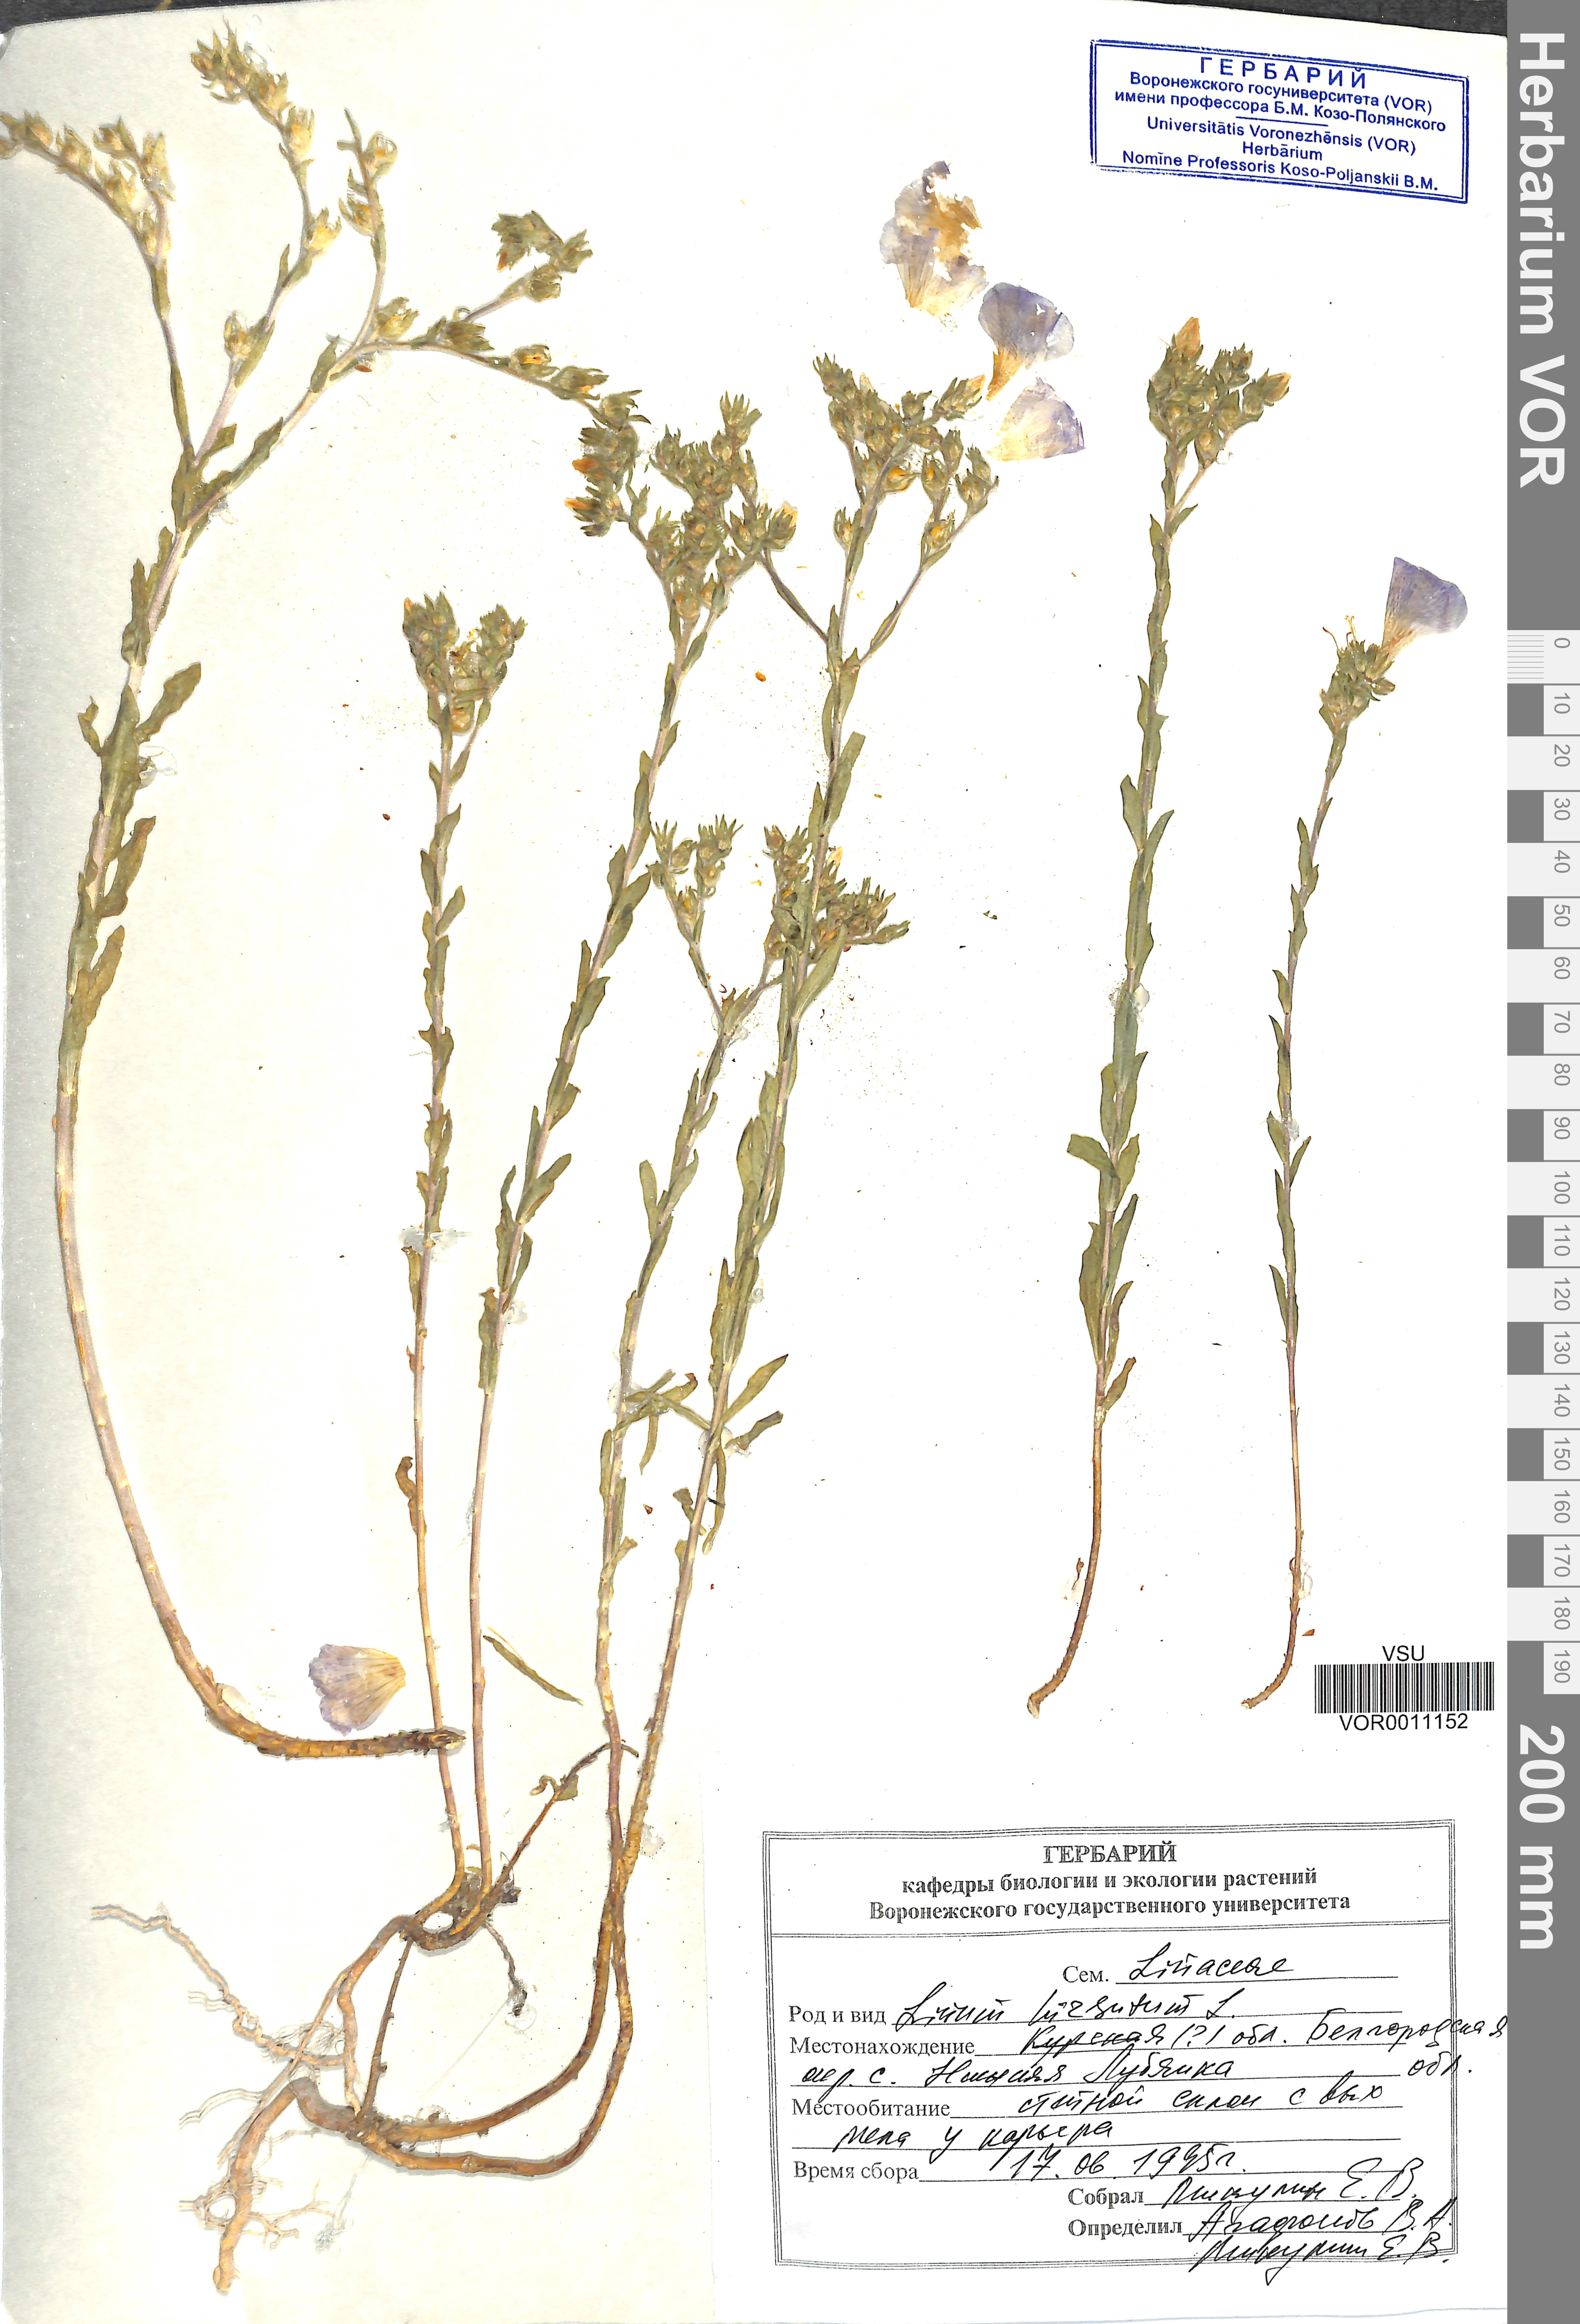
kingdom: Plantae
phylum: Tracheophyta
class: Magnoliopsida
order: Malpighiales
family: Linaceae
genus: Linum
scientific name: Linum hirsutum
